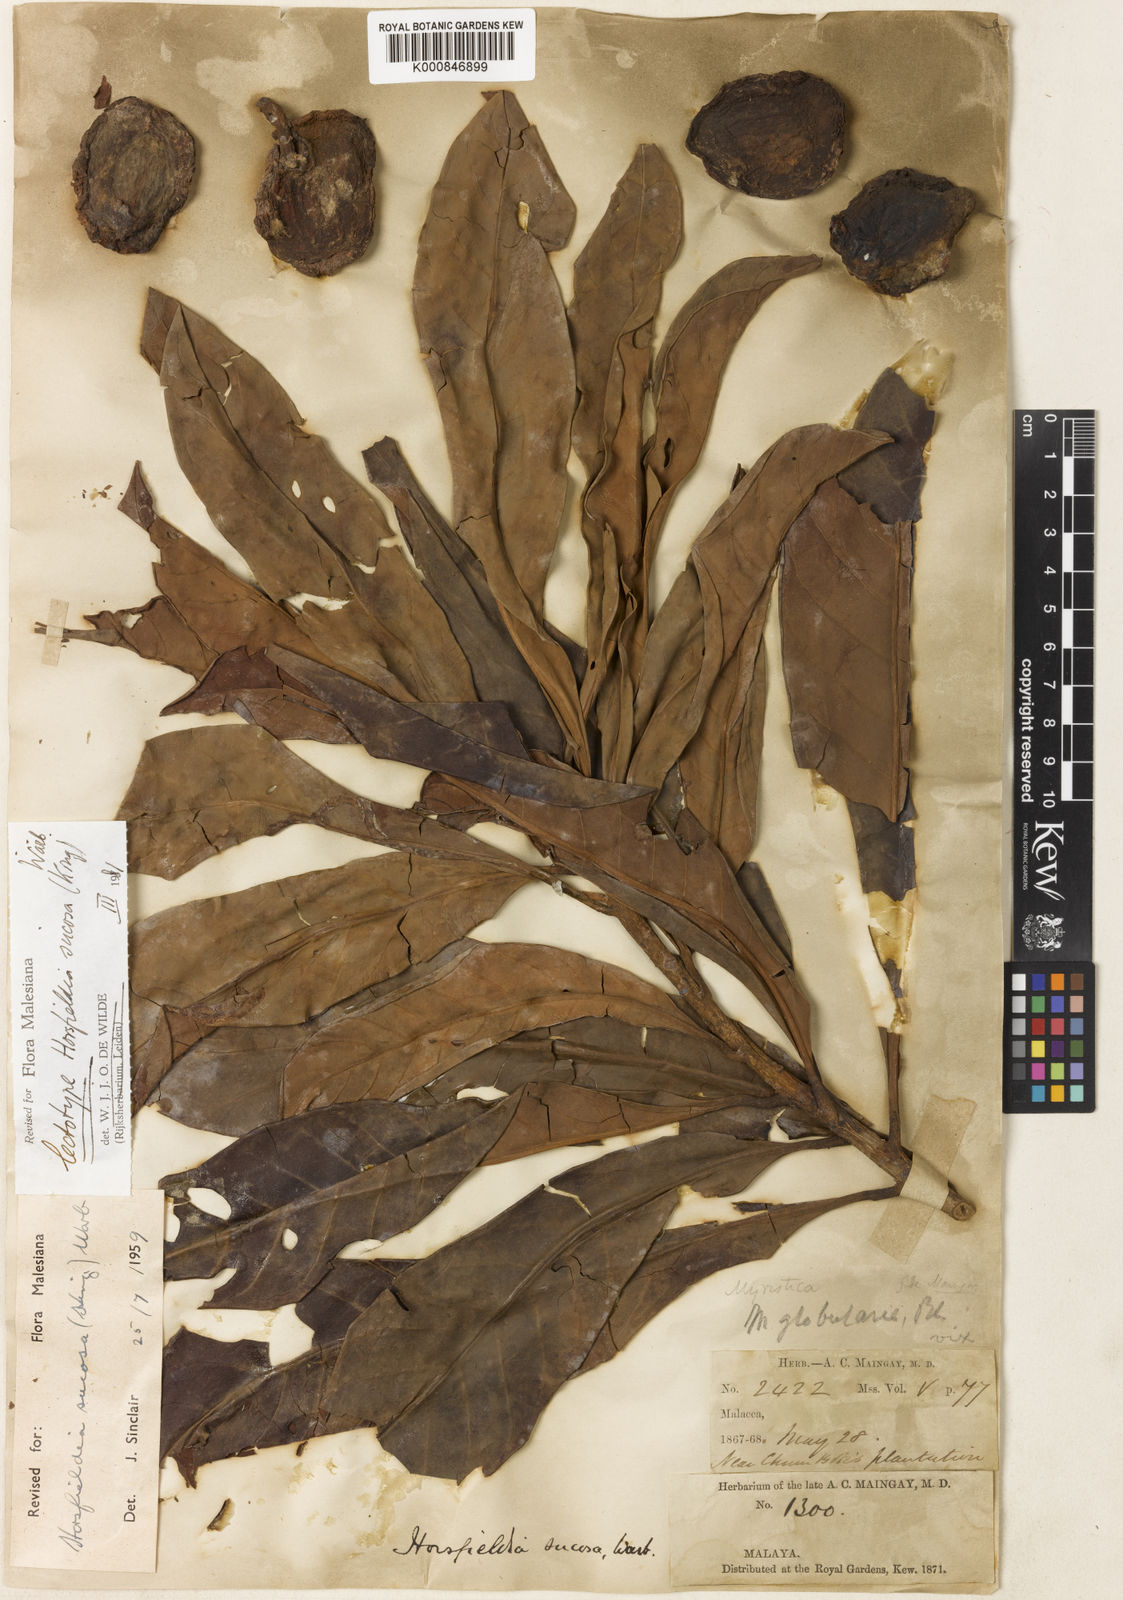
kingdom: Plantae
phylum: Tracheophyta
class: Magnoliopsida
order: Magnoliales
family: Myristicaceae
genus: Horsfieldia
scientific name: Horsfieldia sucosa
